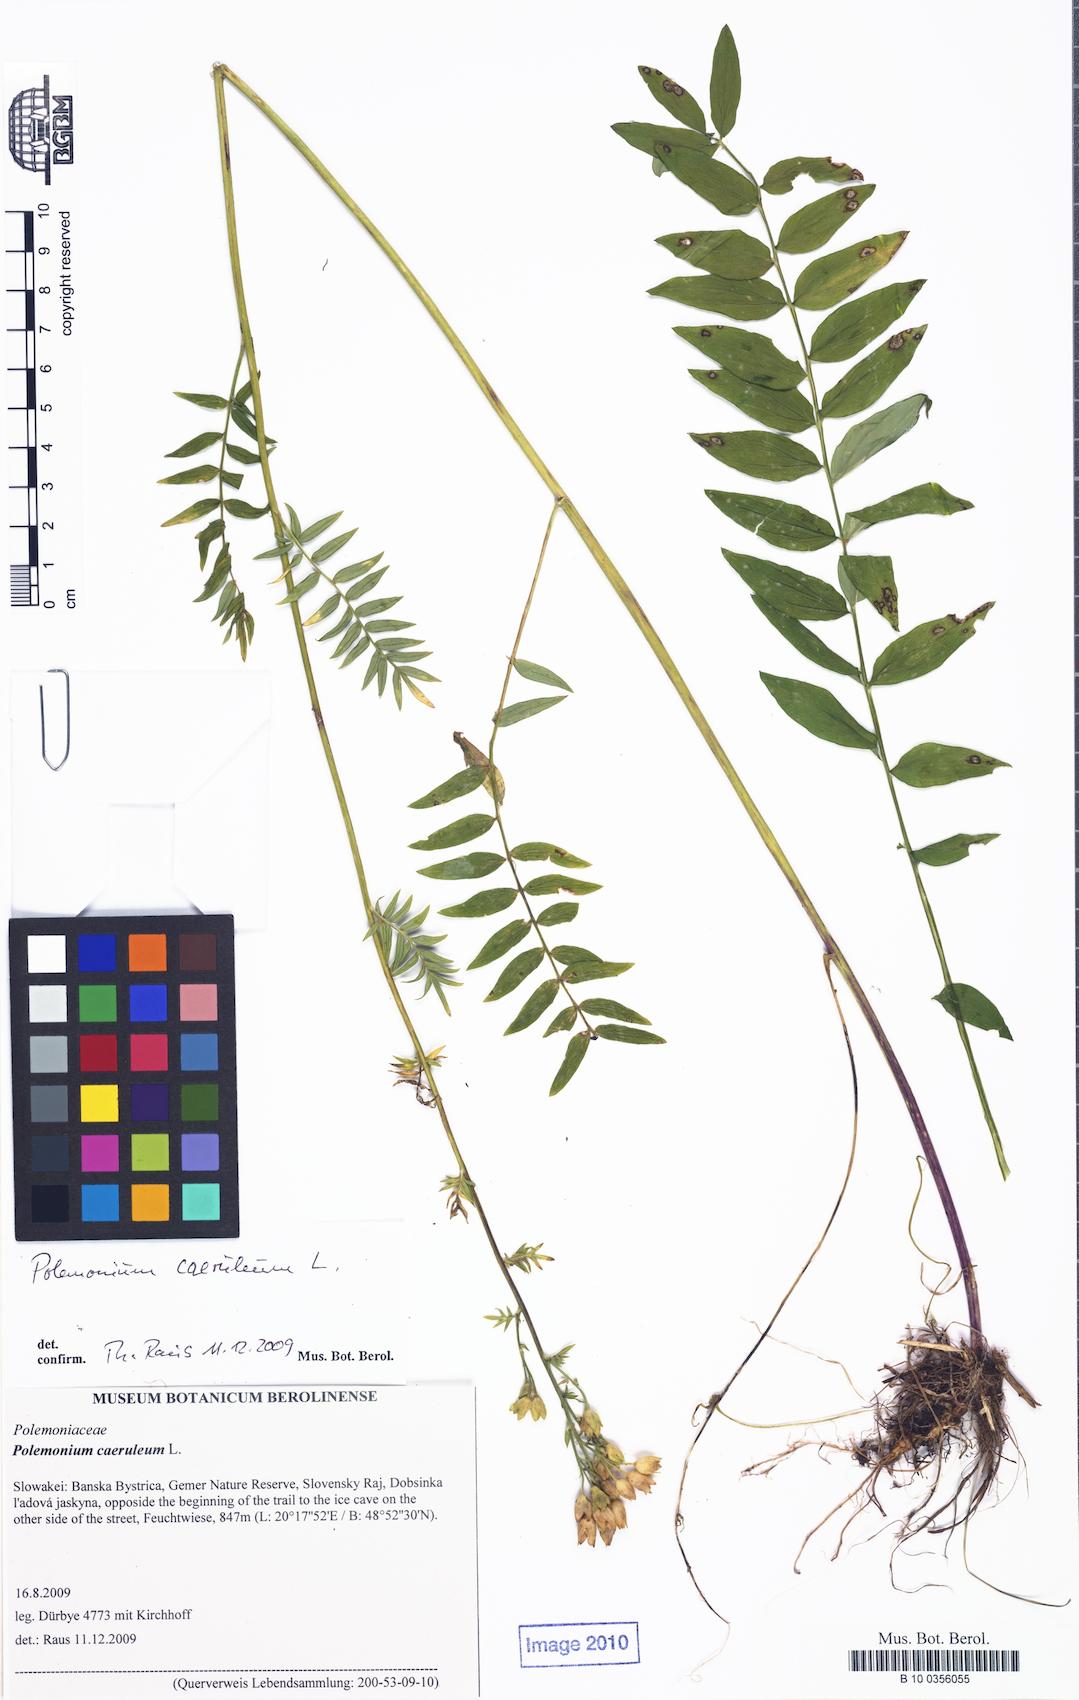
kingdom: Plantae
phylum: Tracheophyta
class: Magnoliopsida
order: Ericales
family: Polemoniaceae
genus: Polemonium
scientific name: Polemonium caeruleum
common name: Jacob's-ladder
